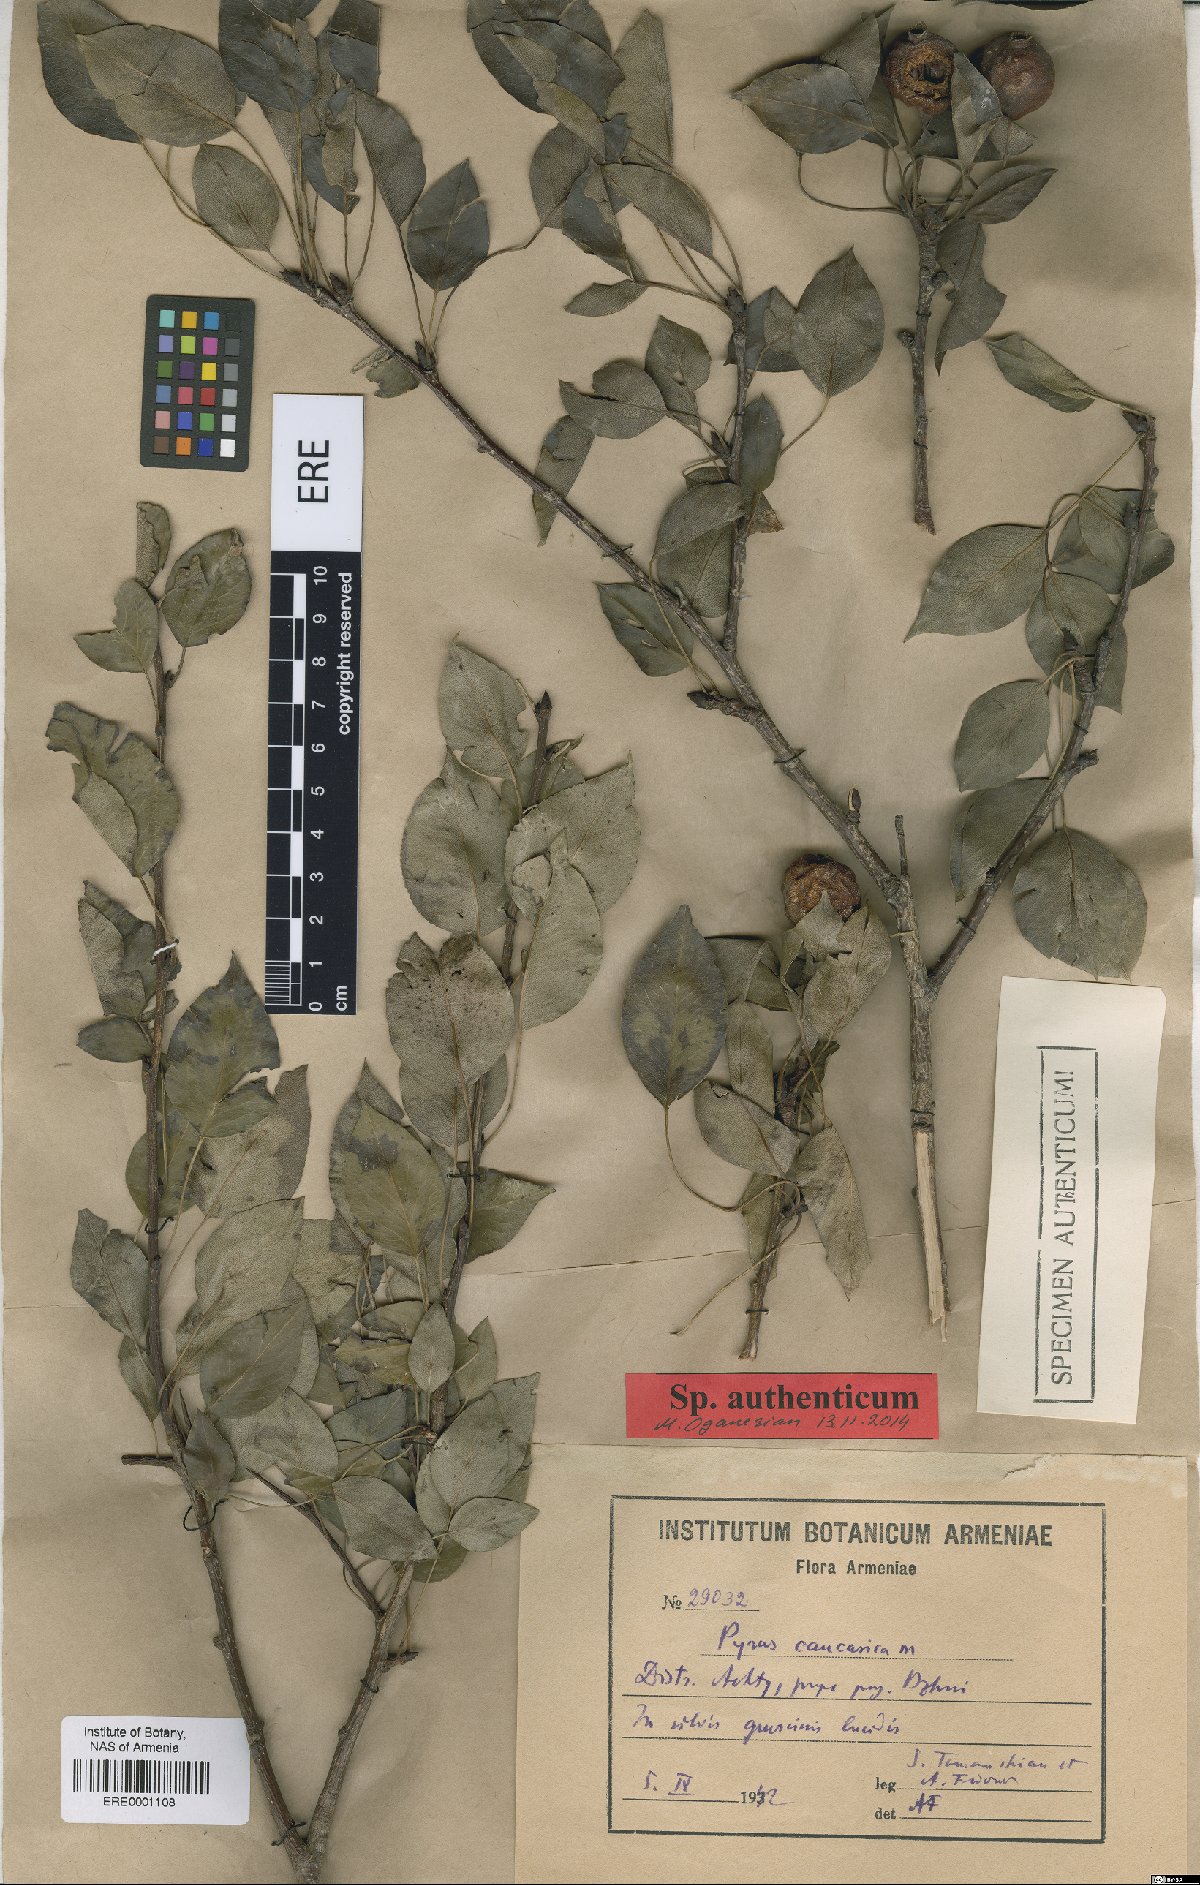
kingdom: Plantae
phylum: Tracheophyta
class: Magnoliopsida
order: Rosales
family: Rosaceae
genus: Pyrus
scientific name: Pyrus communis
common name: Pear
